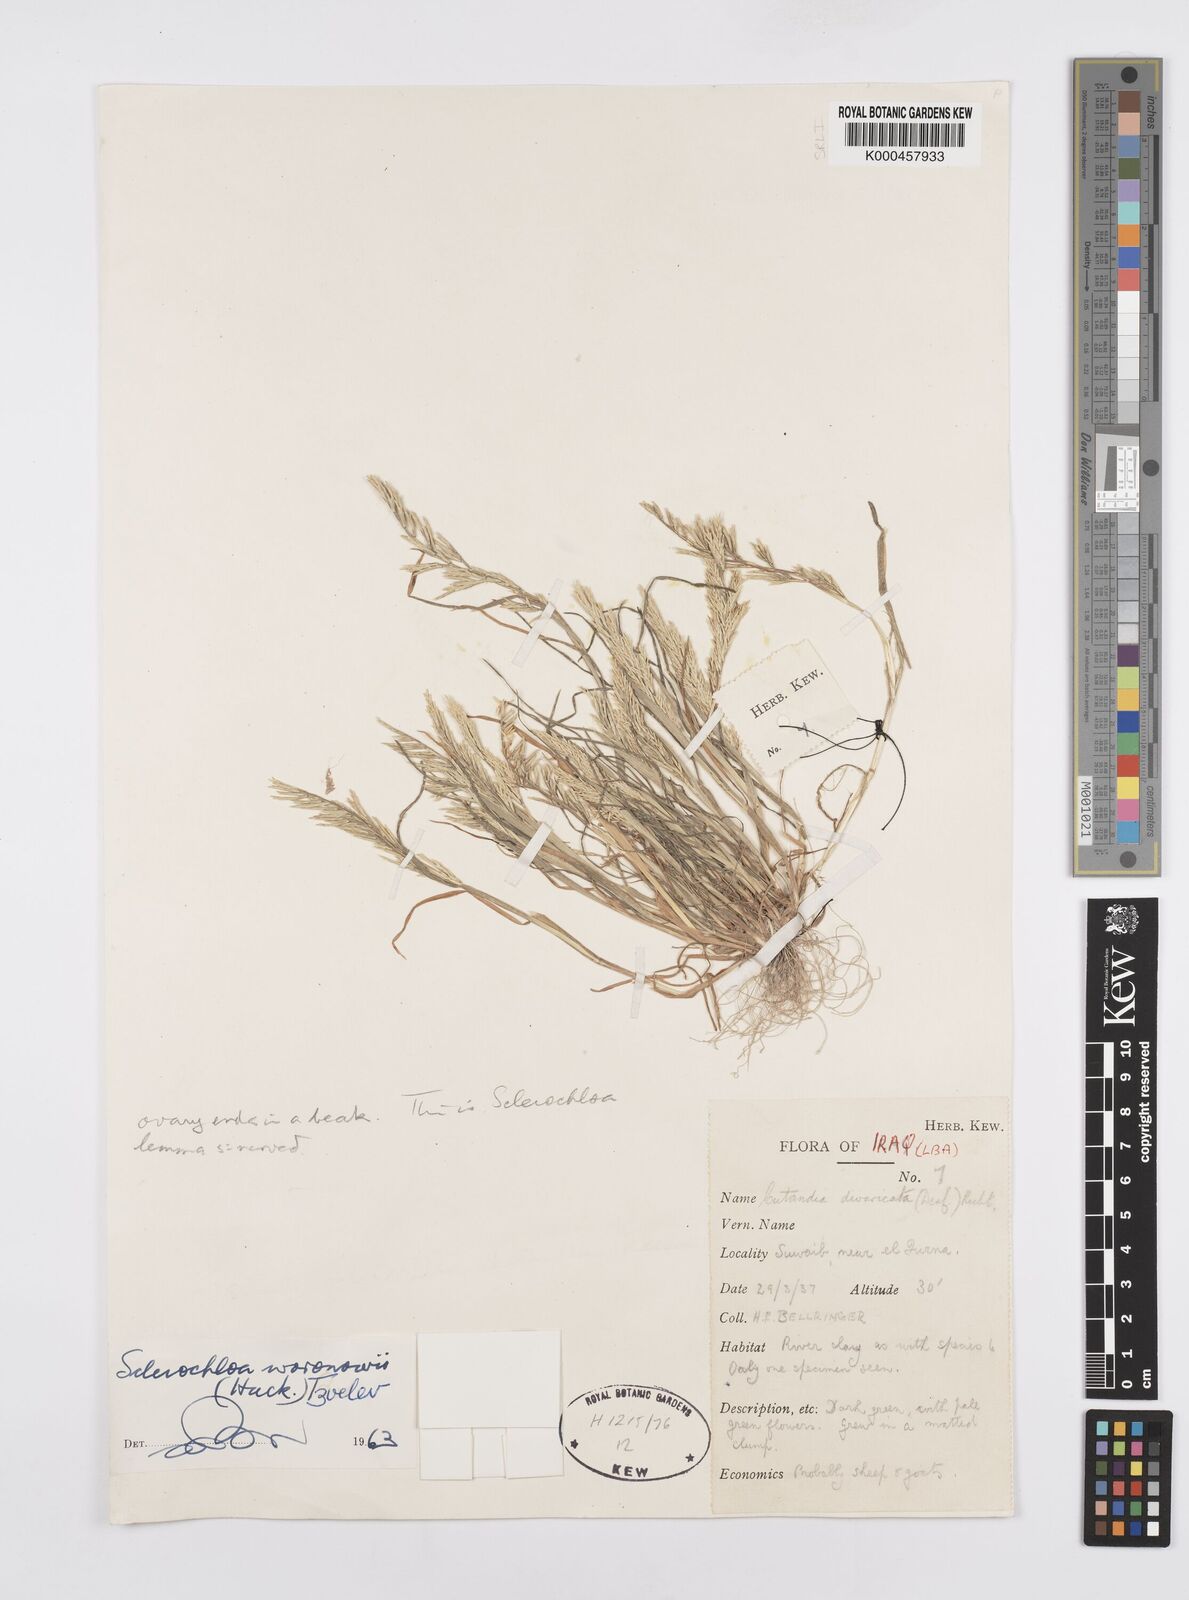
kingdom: Plantae
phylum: Tracheophyta
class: Liliopsida
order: Poales
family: Poaceae
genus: Sclerochloa
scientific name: Sclerochloa woronowii
